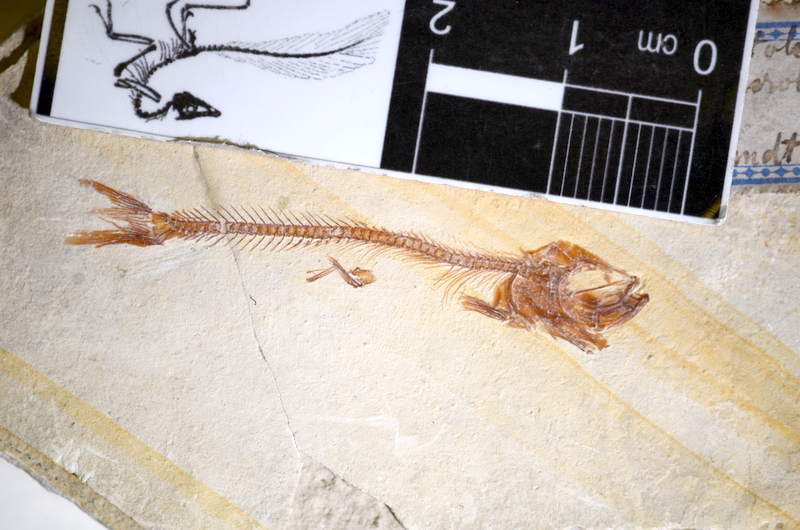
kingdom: Animalia
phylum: Chordata
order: Salmoniformes
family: Orthogonikleithridae
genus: Leptolepides
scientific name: Leptolepides haerteisi
